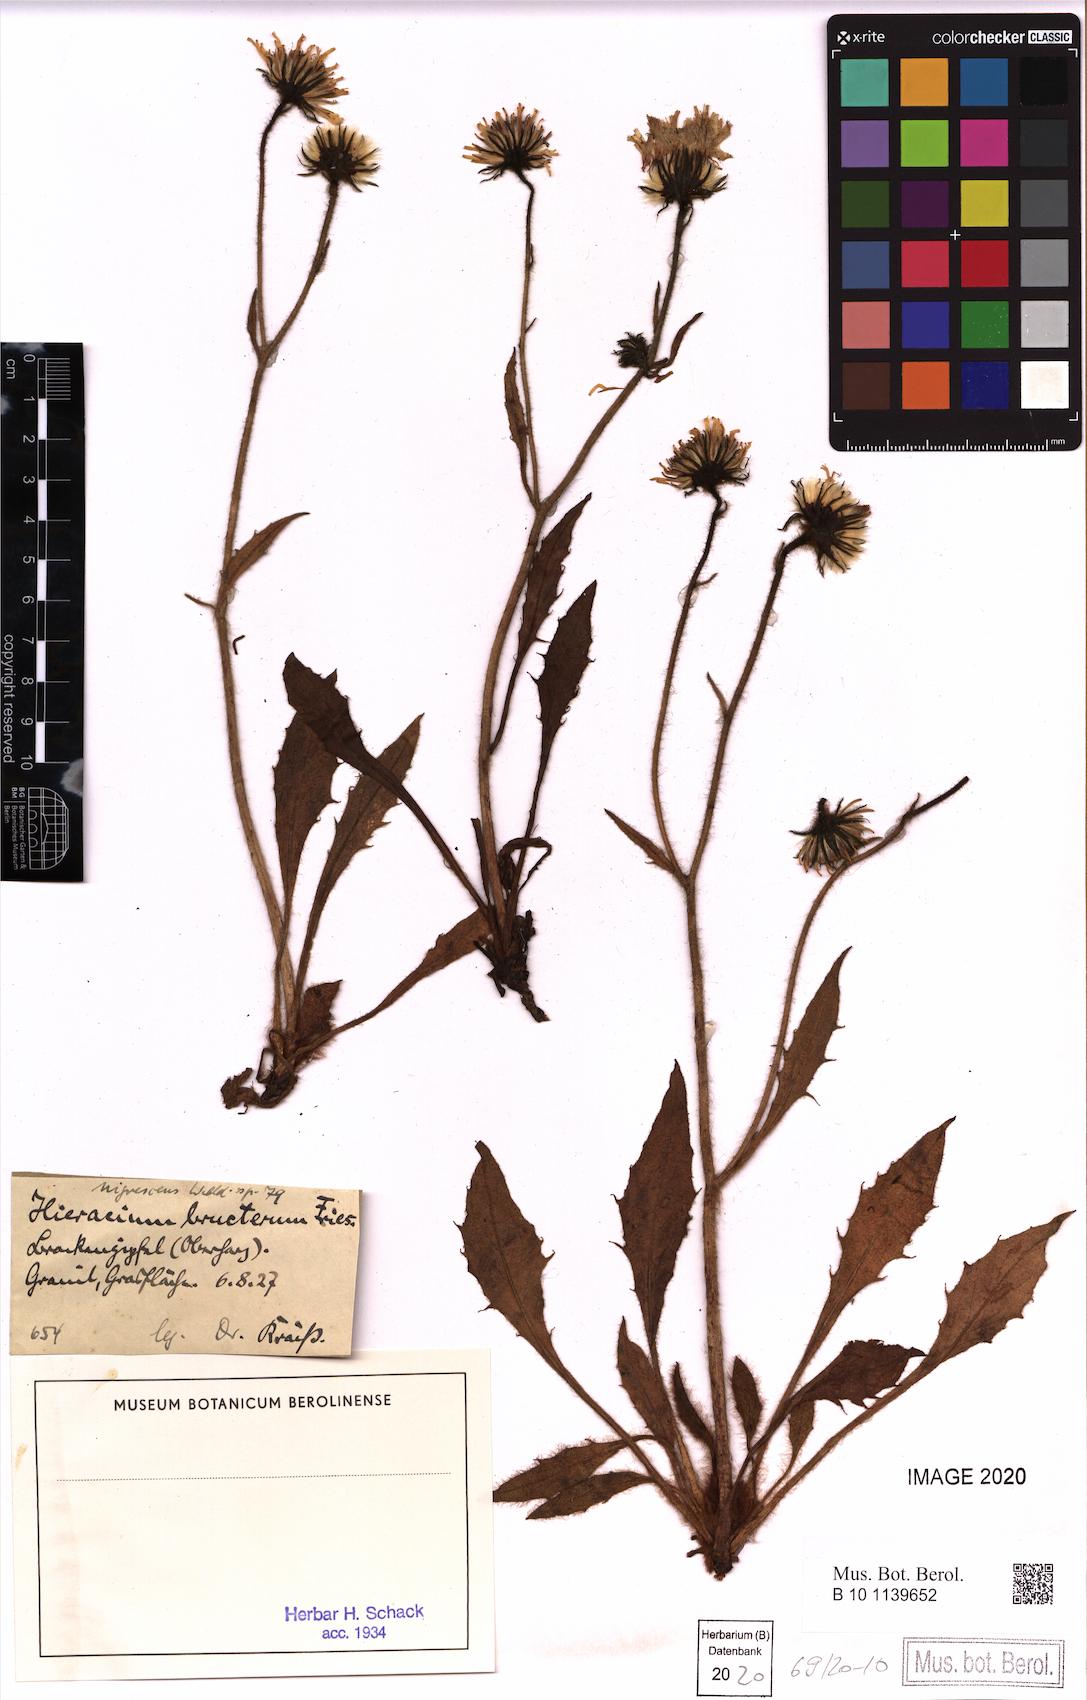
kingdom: Plantae
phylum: Tracheophyta
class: Magnoliopsida
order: Asterales
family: Asteraceae
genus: Hieracium
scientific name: Hieracium nigrescens
